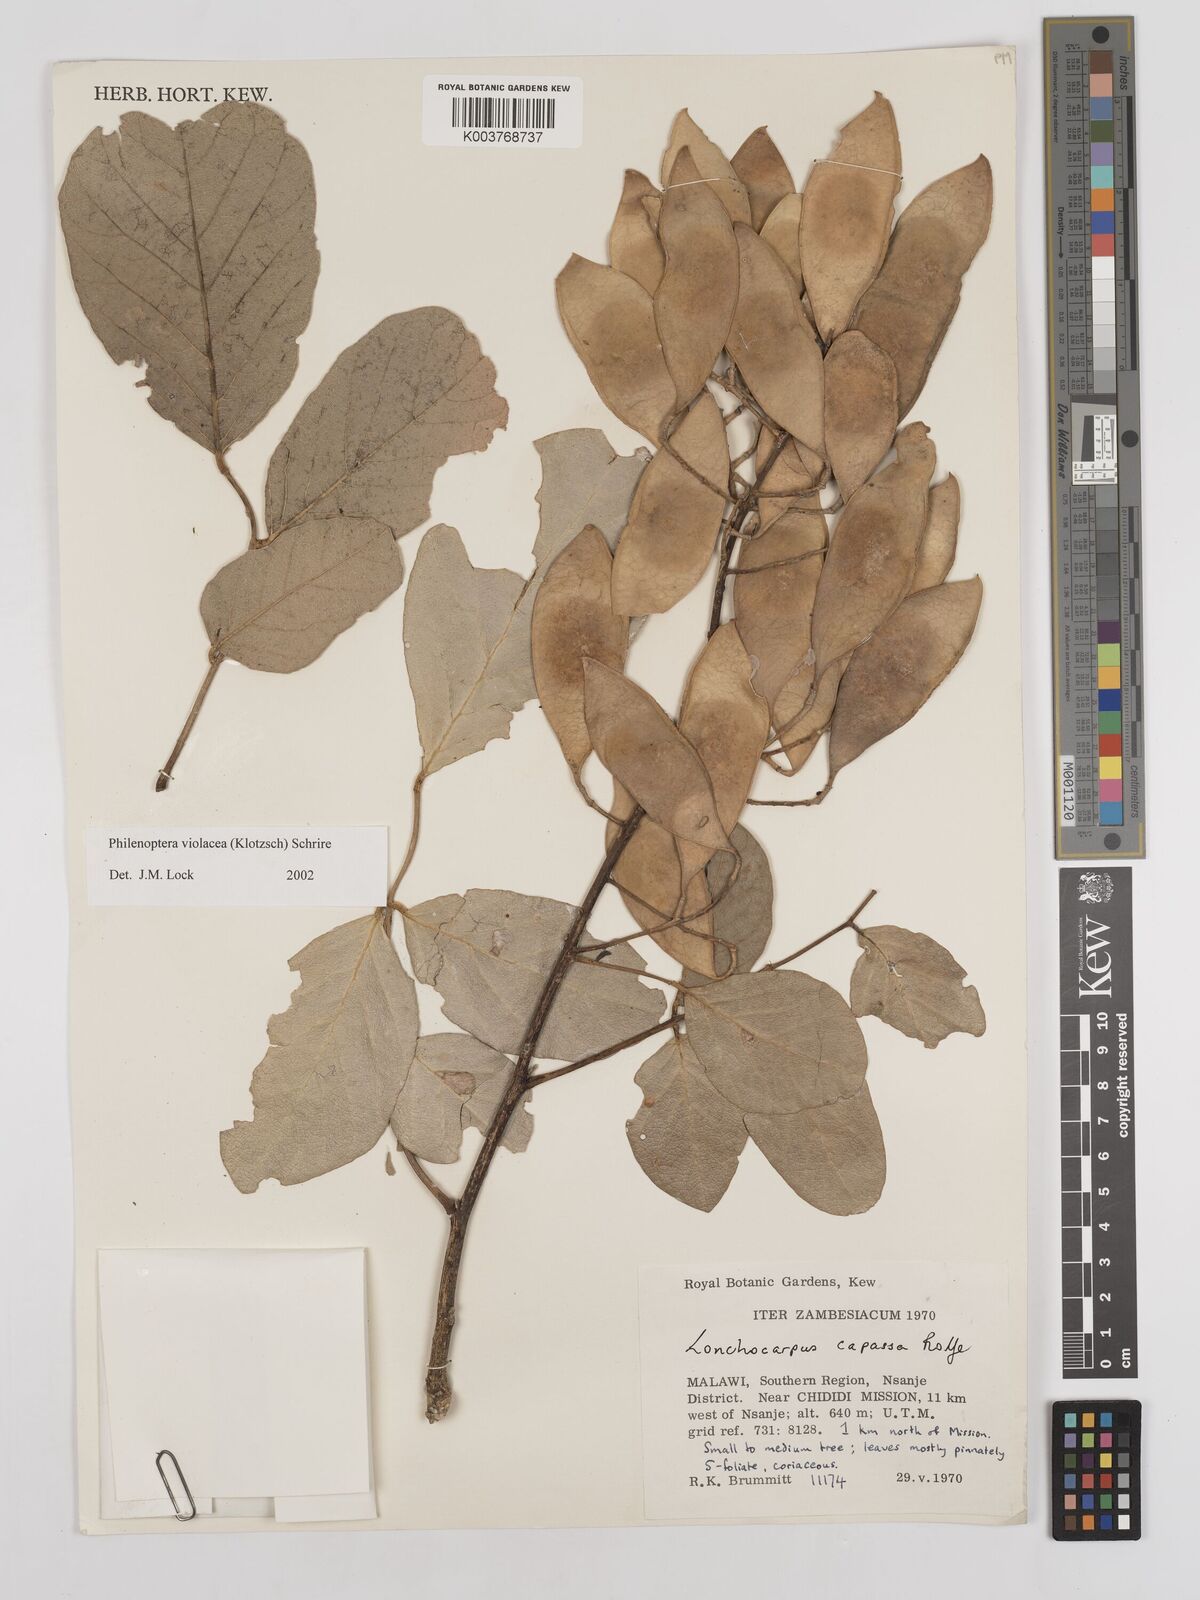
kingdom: Plantae
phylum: Tracheophyta
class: Magnoliopsida
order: Fabales
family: Fabaceae
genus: Philenoptera
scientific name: Philenoptera violacea
